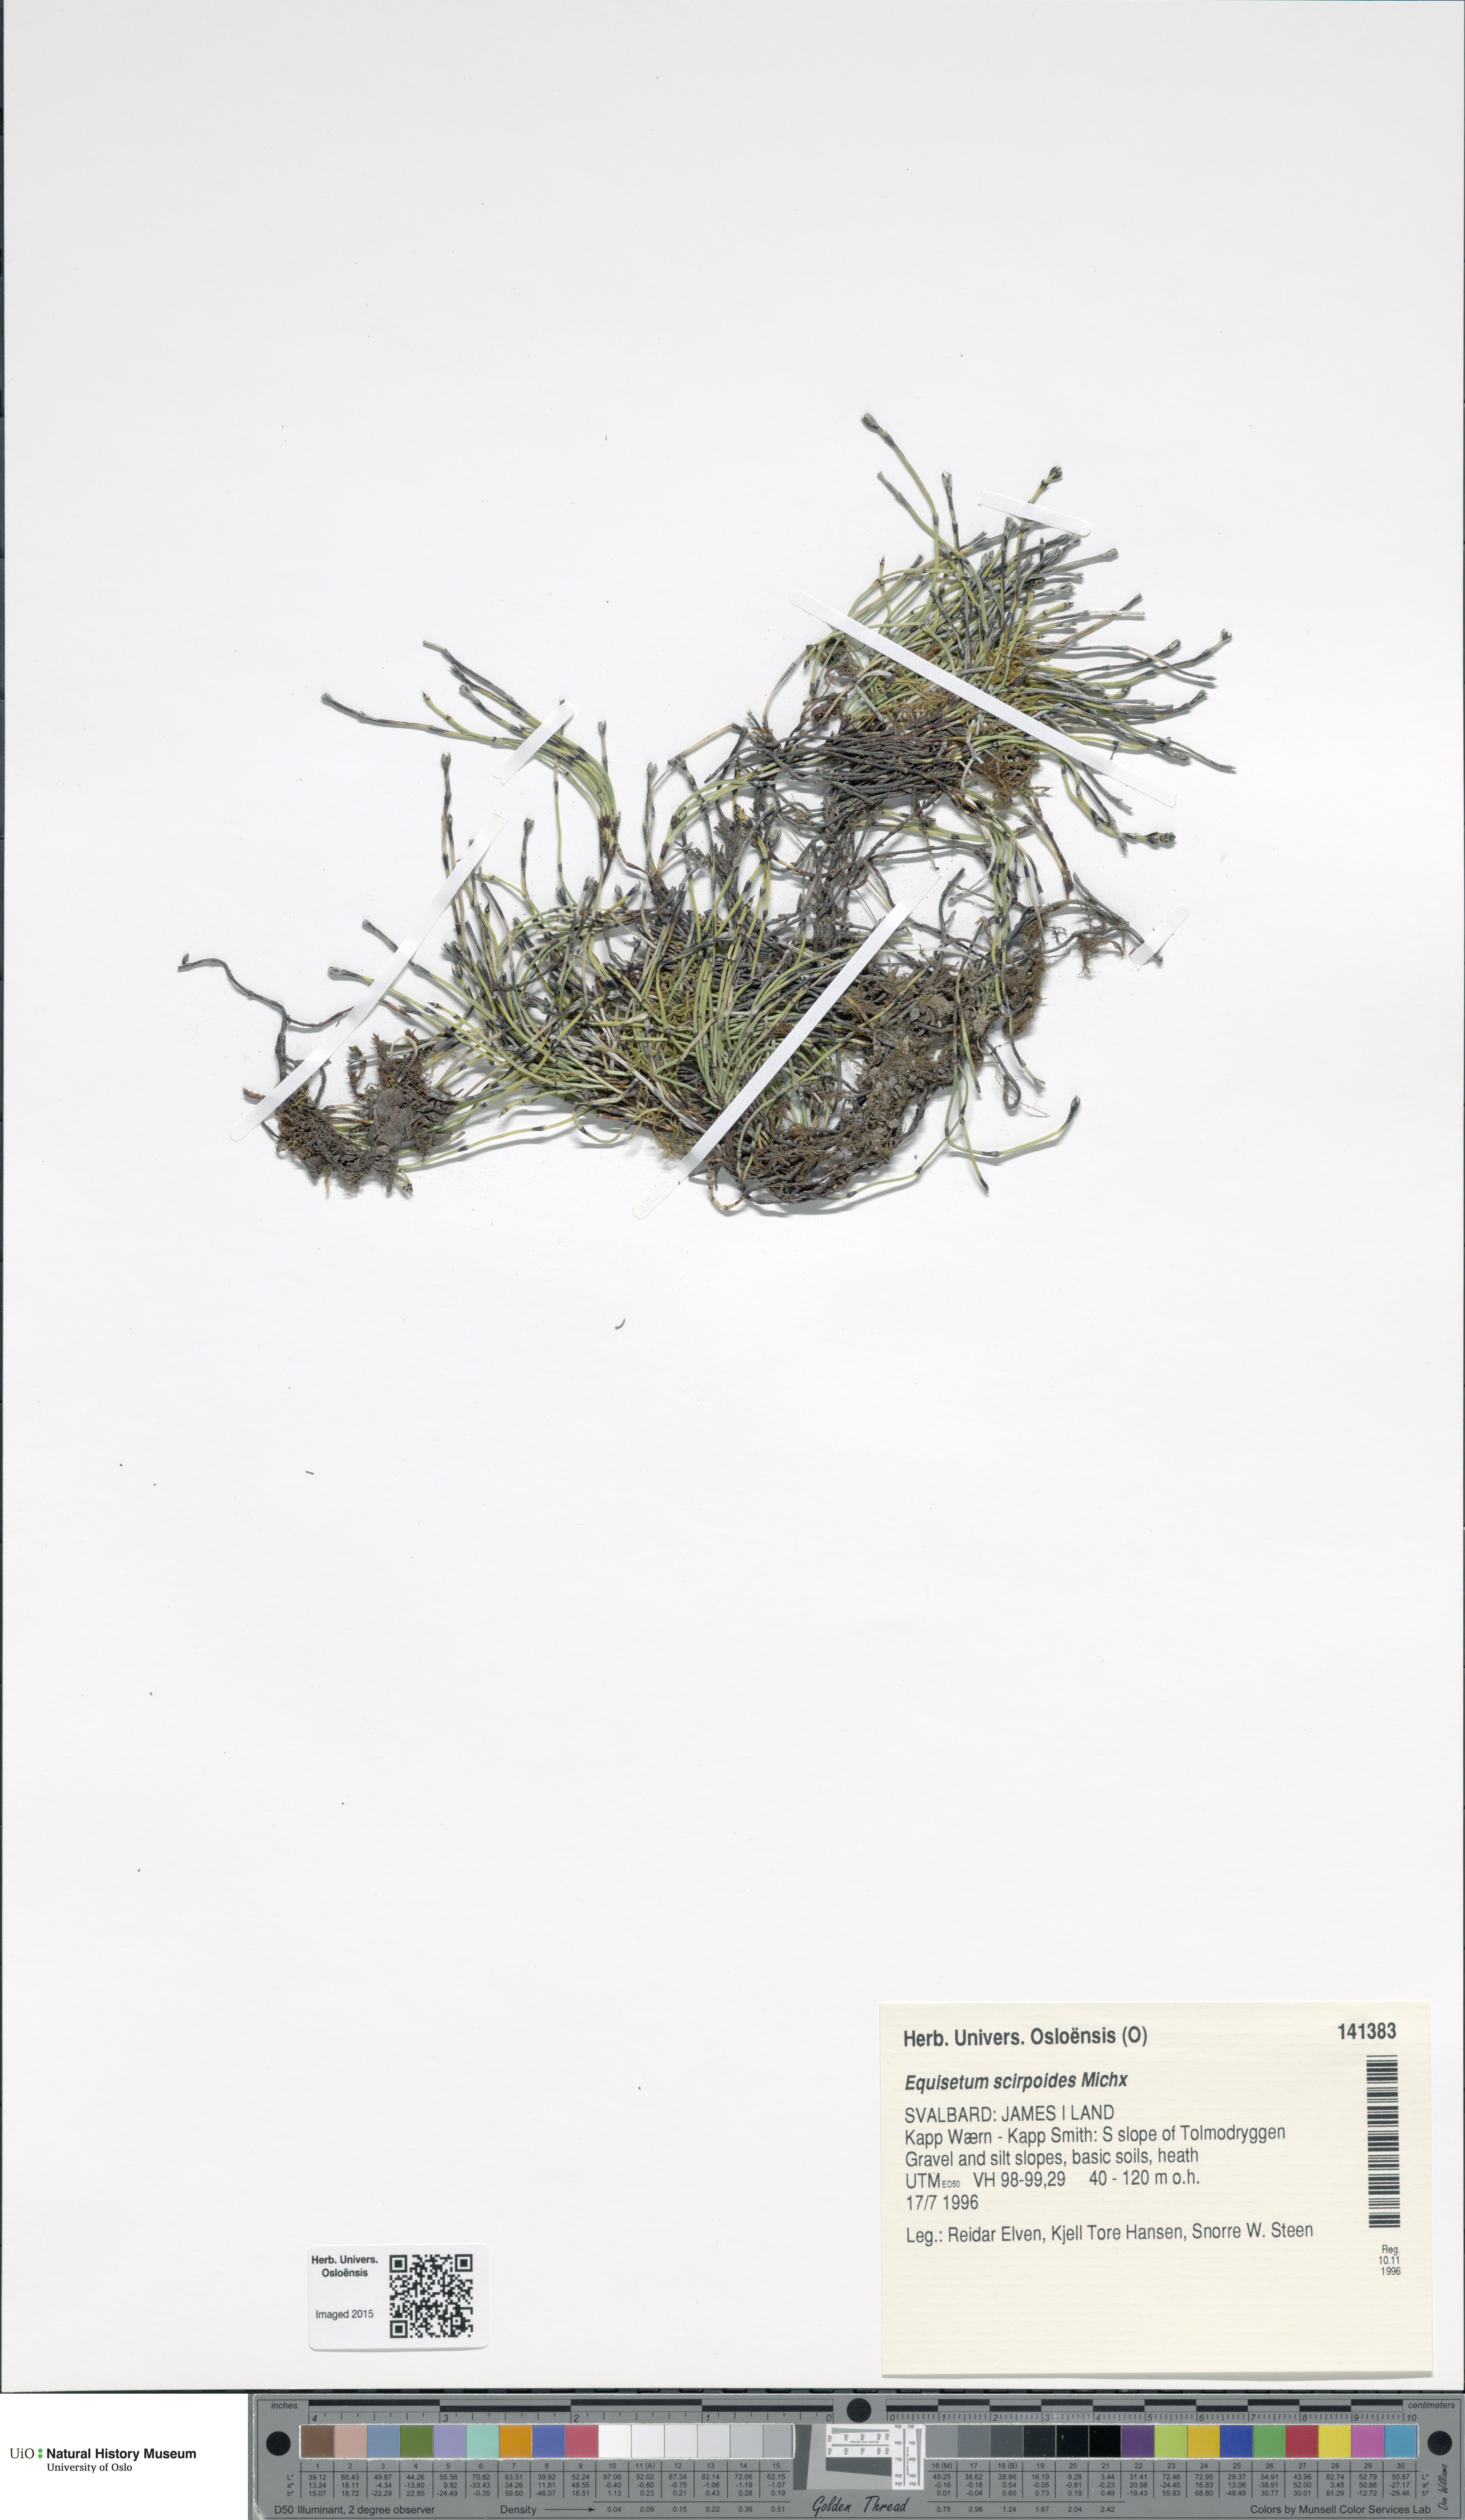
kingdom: Plantae
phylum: Tracheophyta
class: Polypodiopsida
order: Equisetales
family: Equisetaceae
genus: Equisetum
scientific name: Equisetum scirpoides
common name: Delicate horsetail
